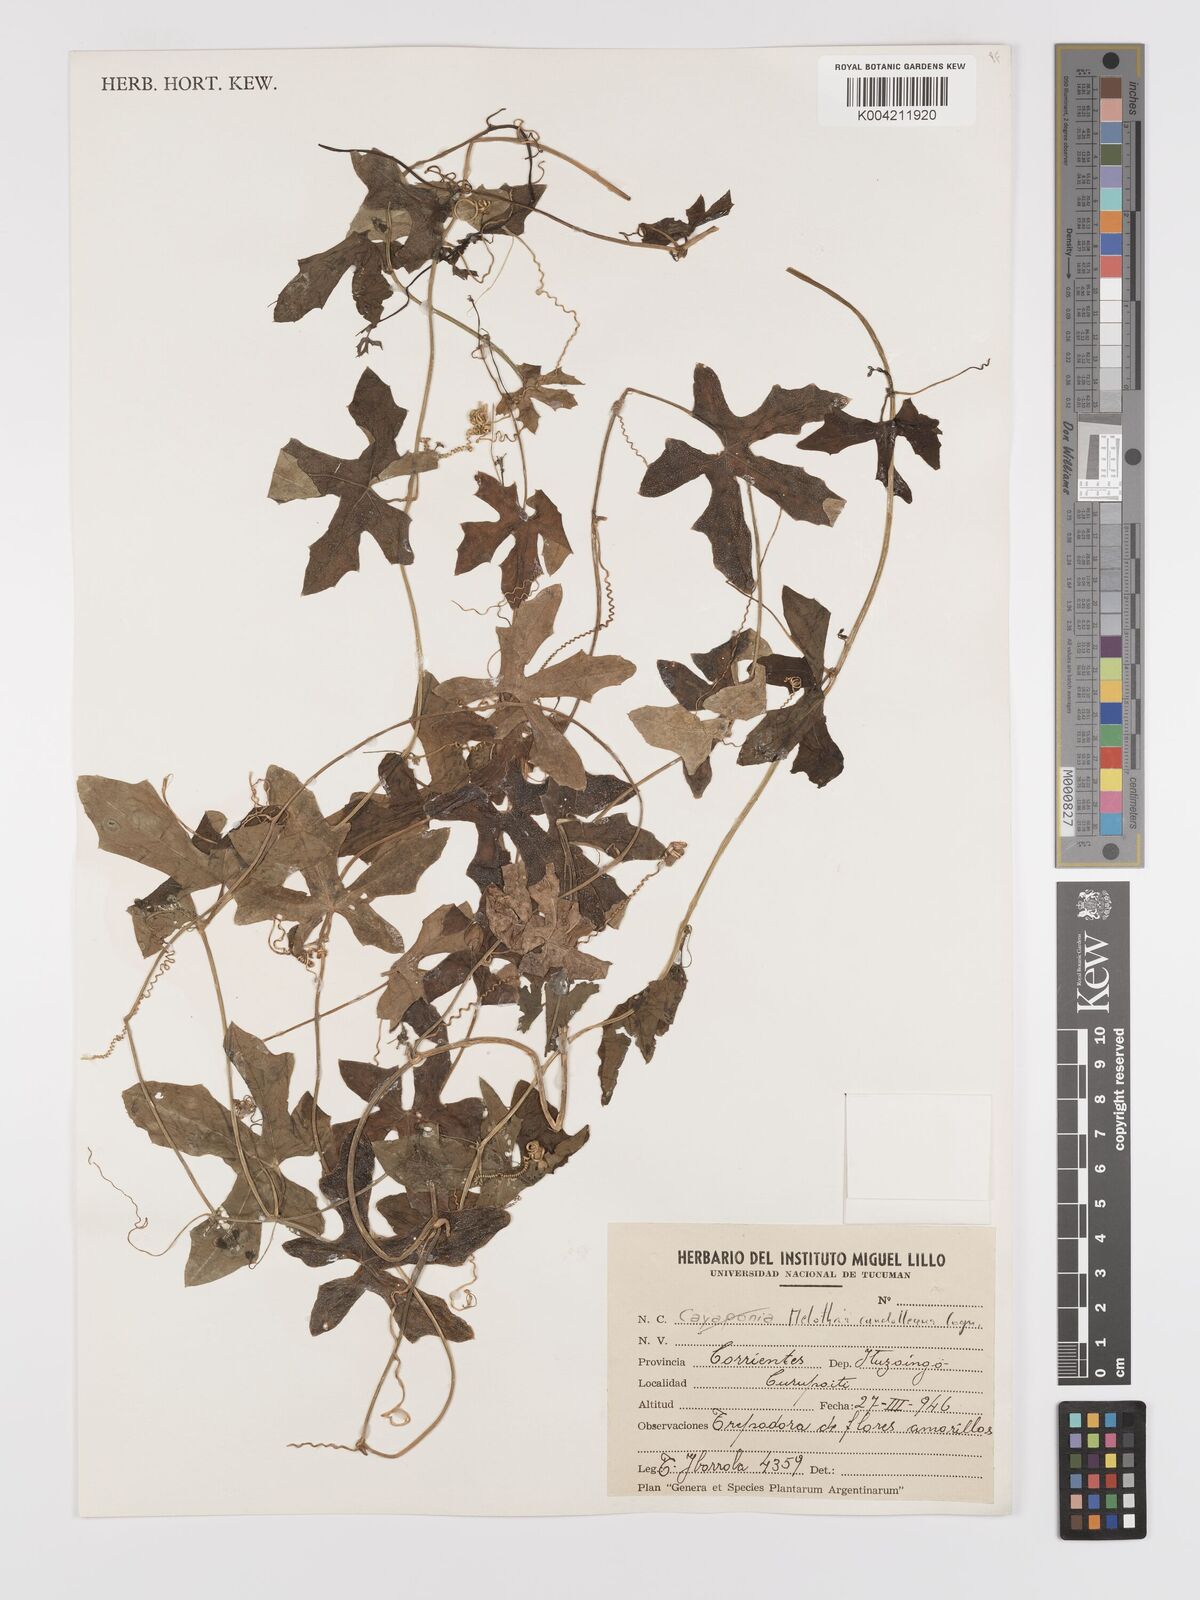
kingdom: Plantae
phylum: Tracheophyta
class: Magnoliopsida
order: Cucurbitales
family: Cucurbitaceae
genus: Melothria
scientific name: Melothria candolleana
